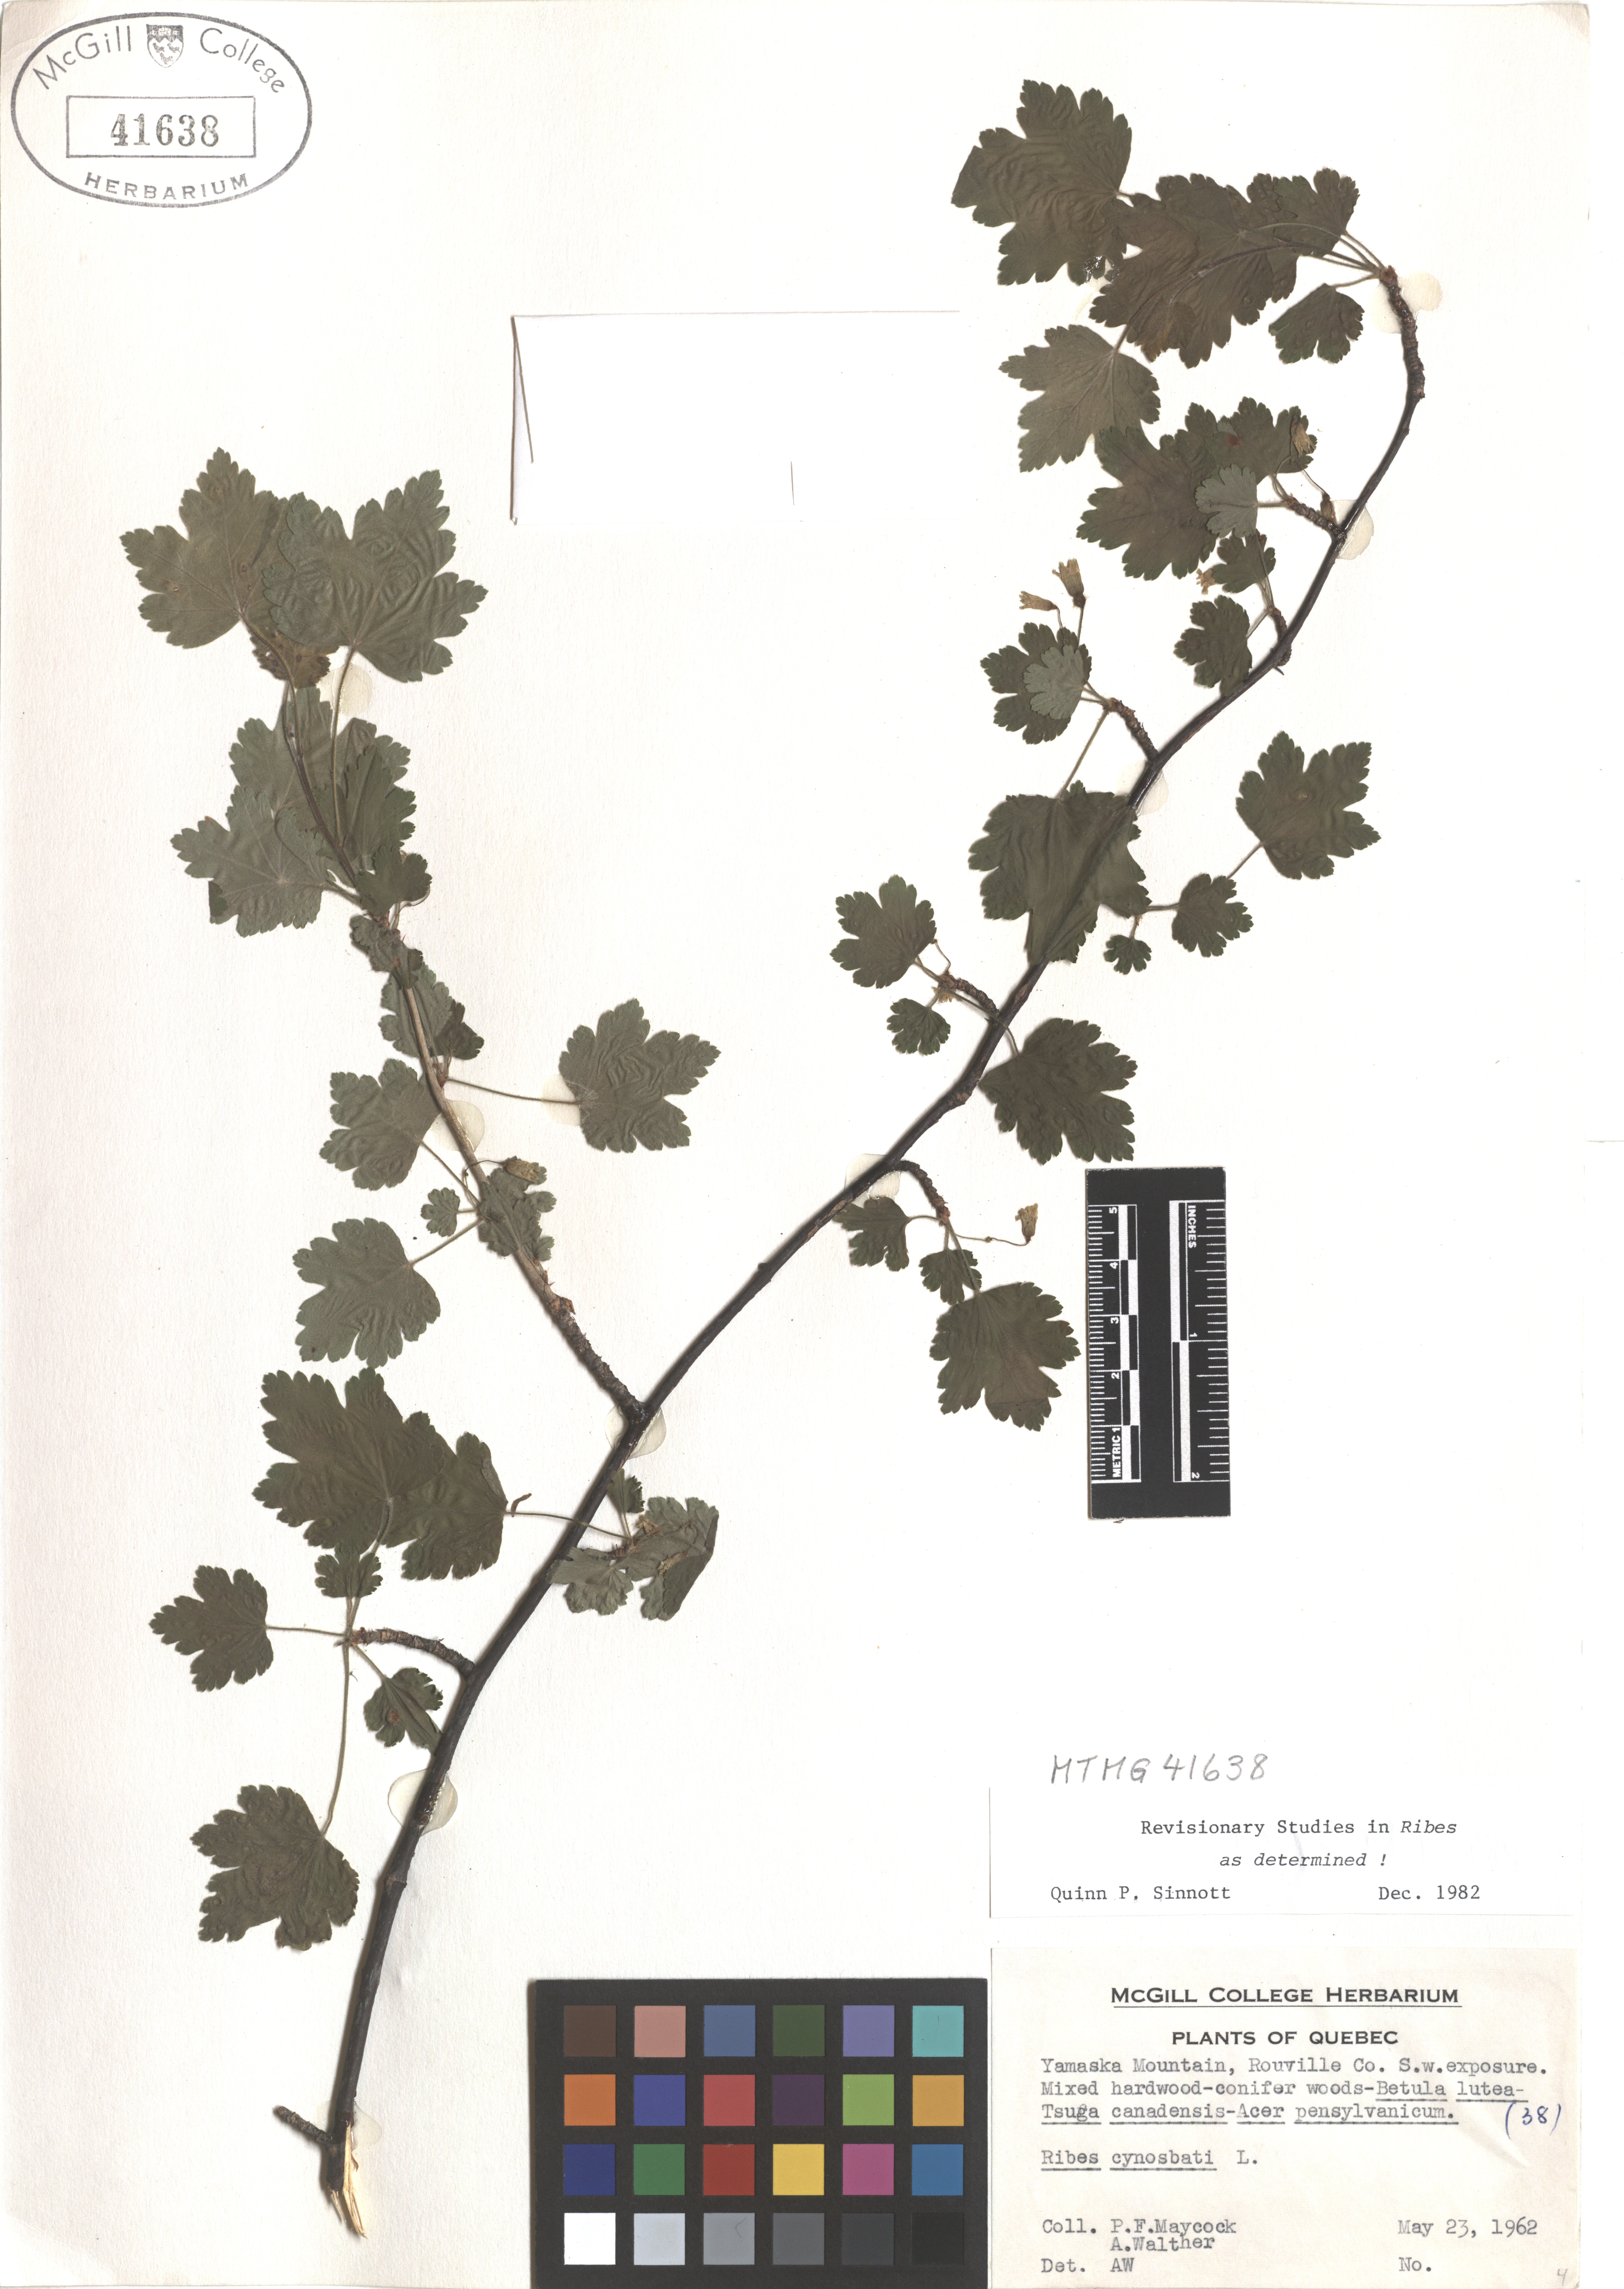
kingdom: Plantae
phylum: Tracheophyta
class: Magnoliopsida
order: Saxifragales
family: Grossulariaceae
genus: Ribes
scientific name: Ribes cynosbati
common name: American gooseberry
